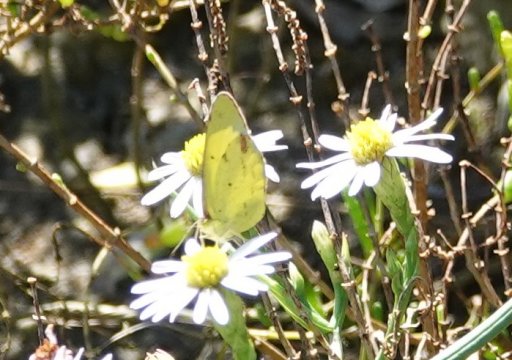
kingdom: Animalia
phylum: Arthropoda
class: Insecta
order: Lepidoptera
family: Pieridae
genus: Pyrisitia
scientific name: Pyrisitia lisa
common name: Little Yellow
